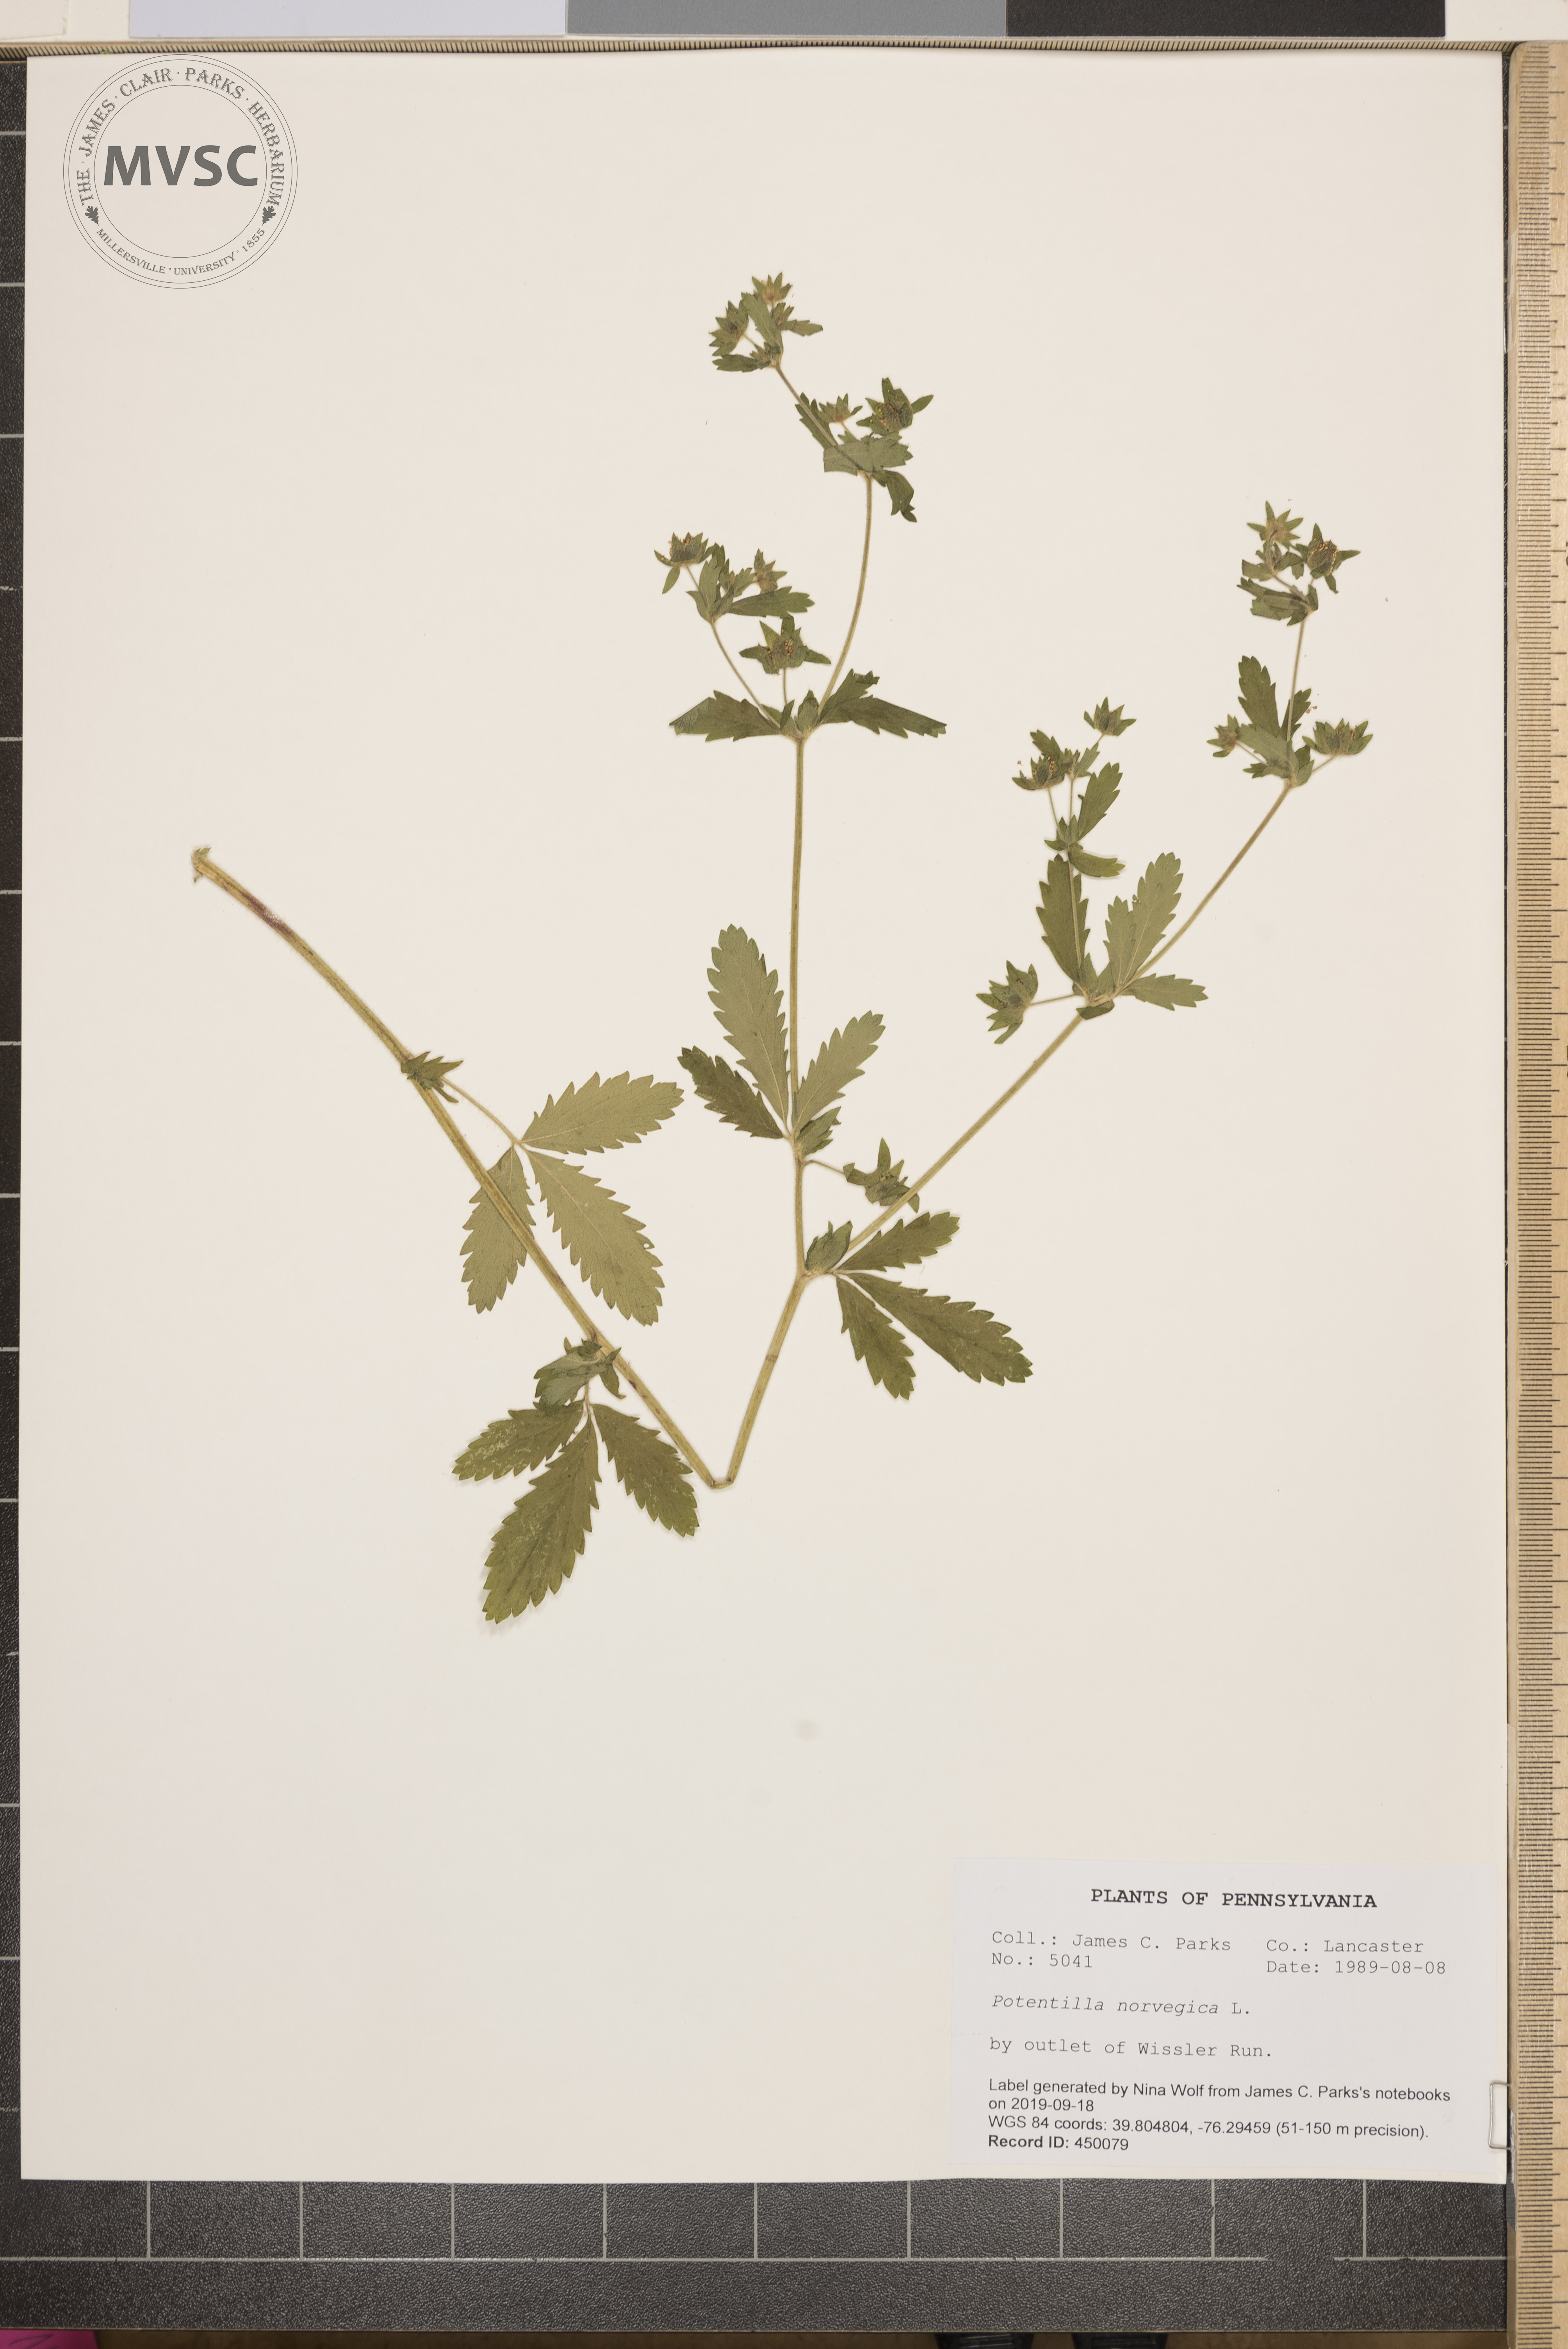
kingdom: Plantae
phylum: Tracheophyta
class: Magnoliopsida
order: Rosales
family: Rosaceae
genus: Potentilla
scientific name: Potentilla norvegica
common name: Ternate-leaved cinquefoil
